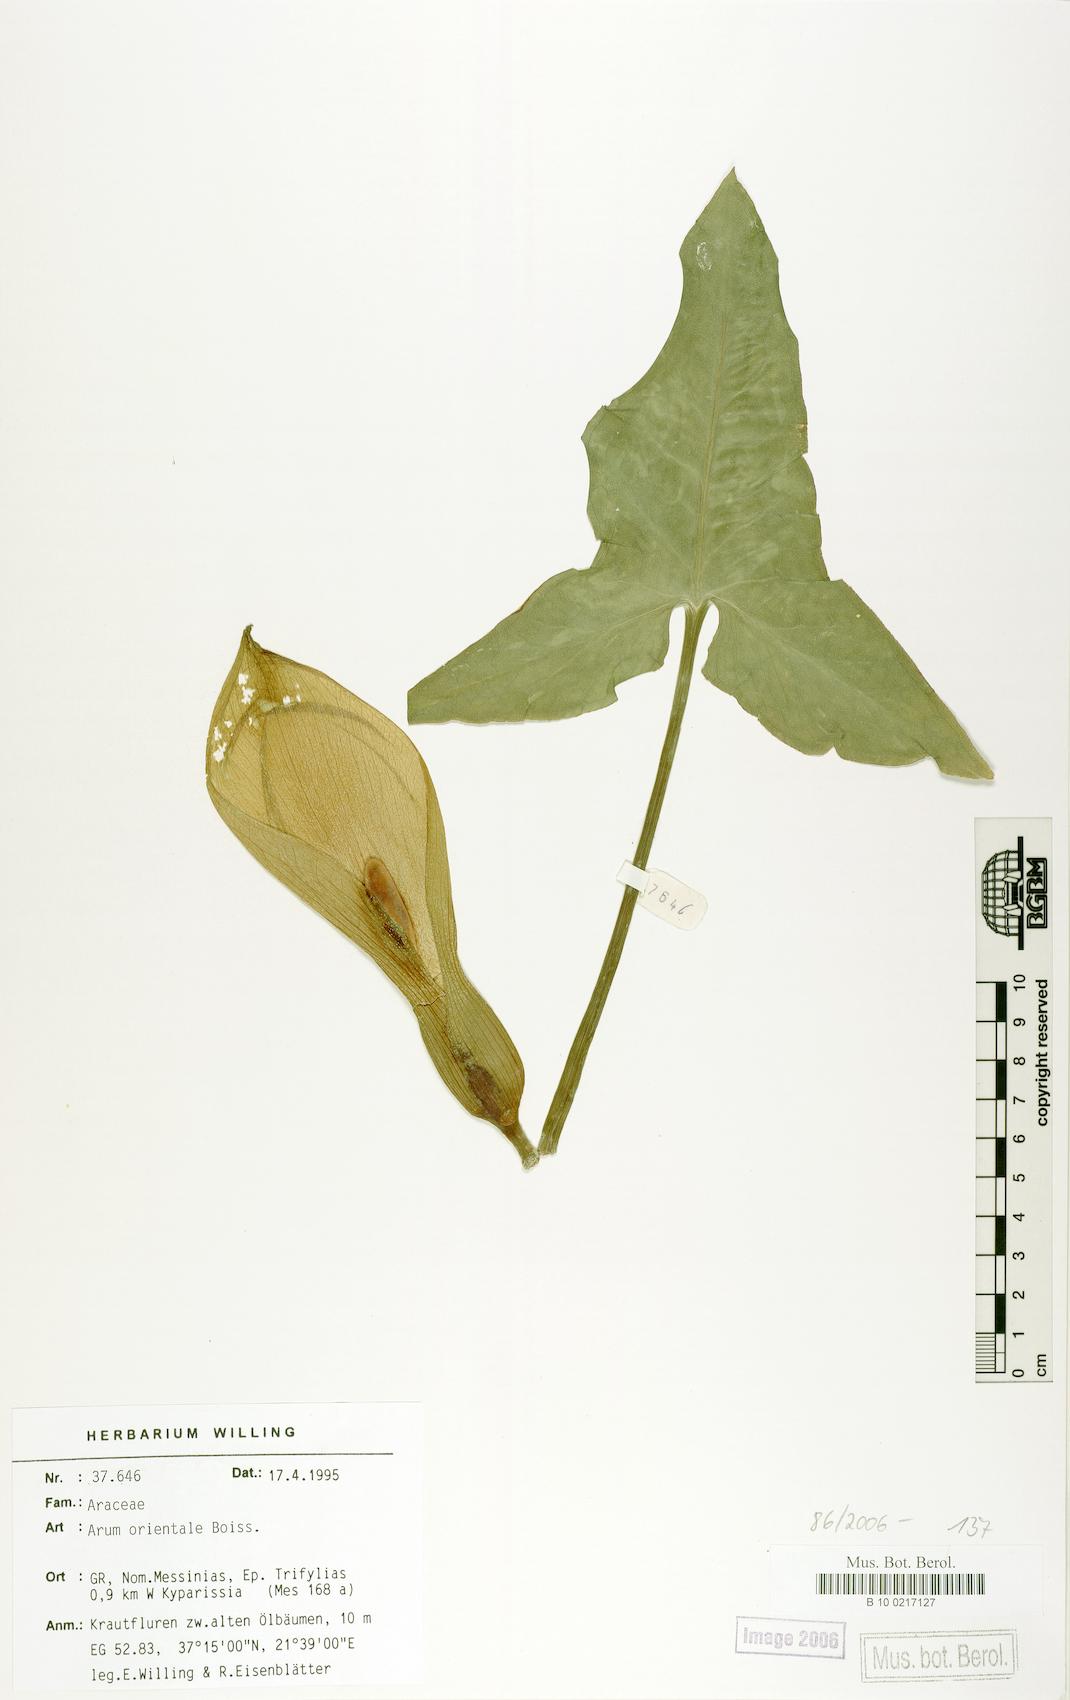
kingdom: Plantae
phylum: Tracheophyta
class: Liliopsida
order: Alismatales
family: Araceae
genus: Arum
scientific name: Arum orientale
